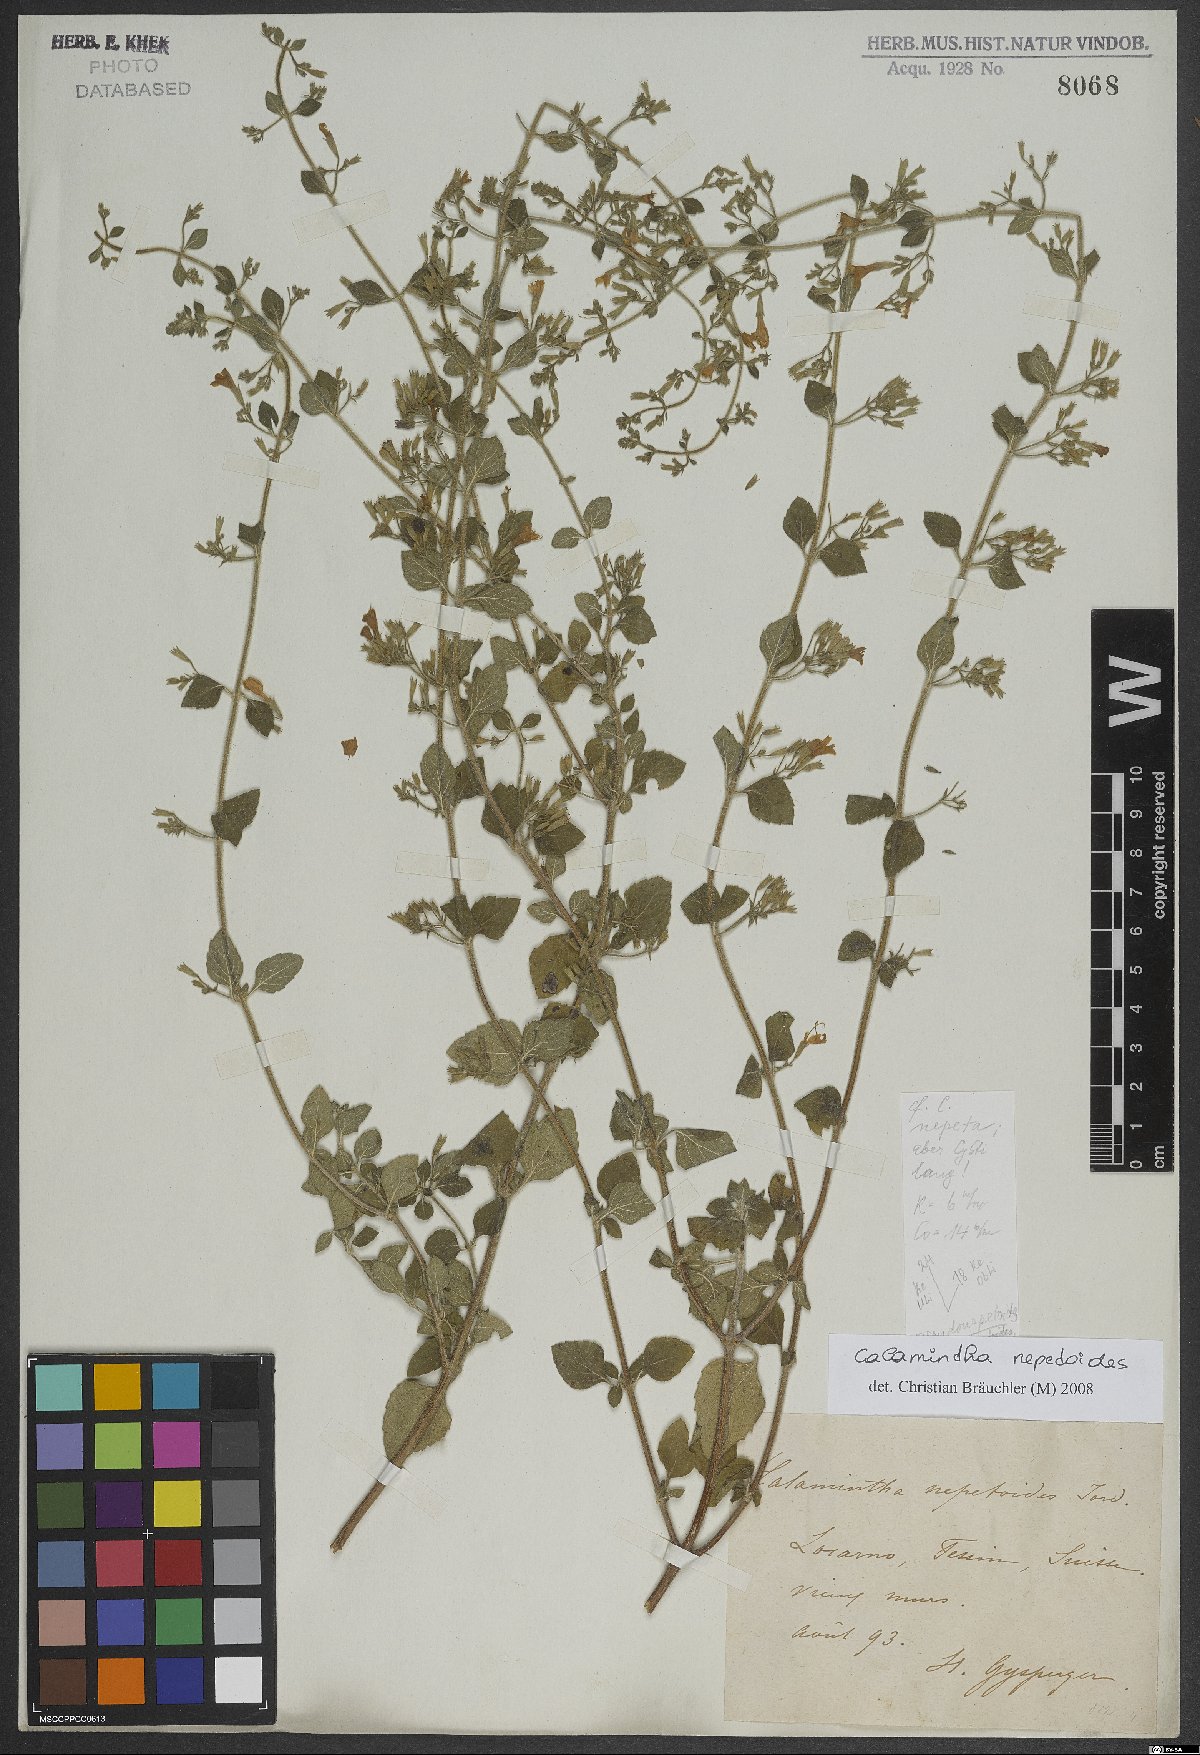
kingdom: Plantae
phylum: Tracheophyta
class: Magnoliopsida
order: Lamiales
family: Lamiaceae
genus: Clinopodium
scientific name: Clinopodium nepeta
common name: Lesser calamint
